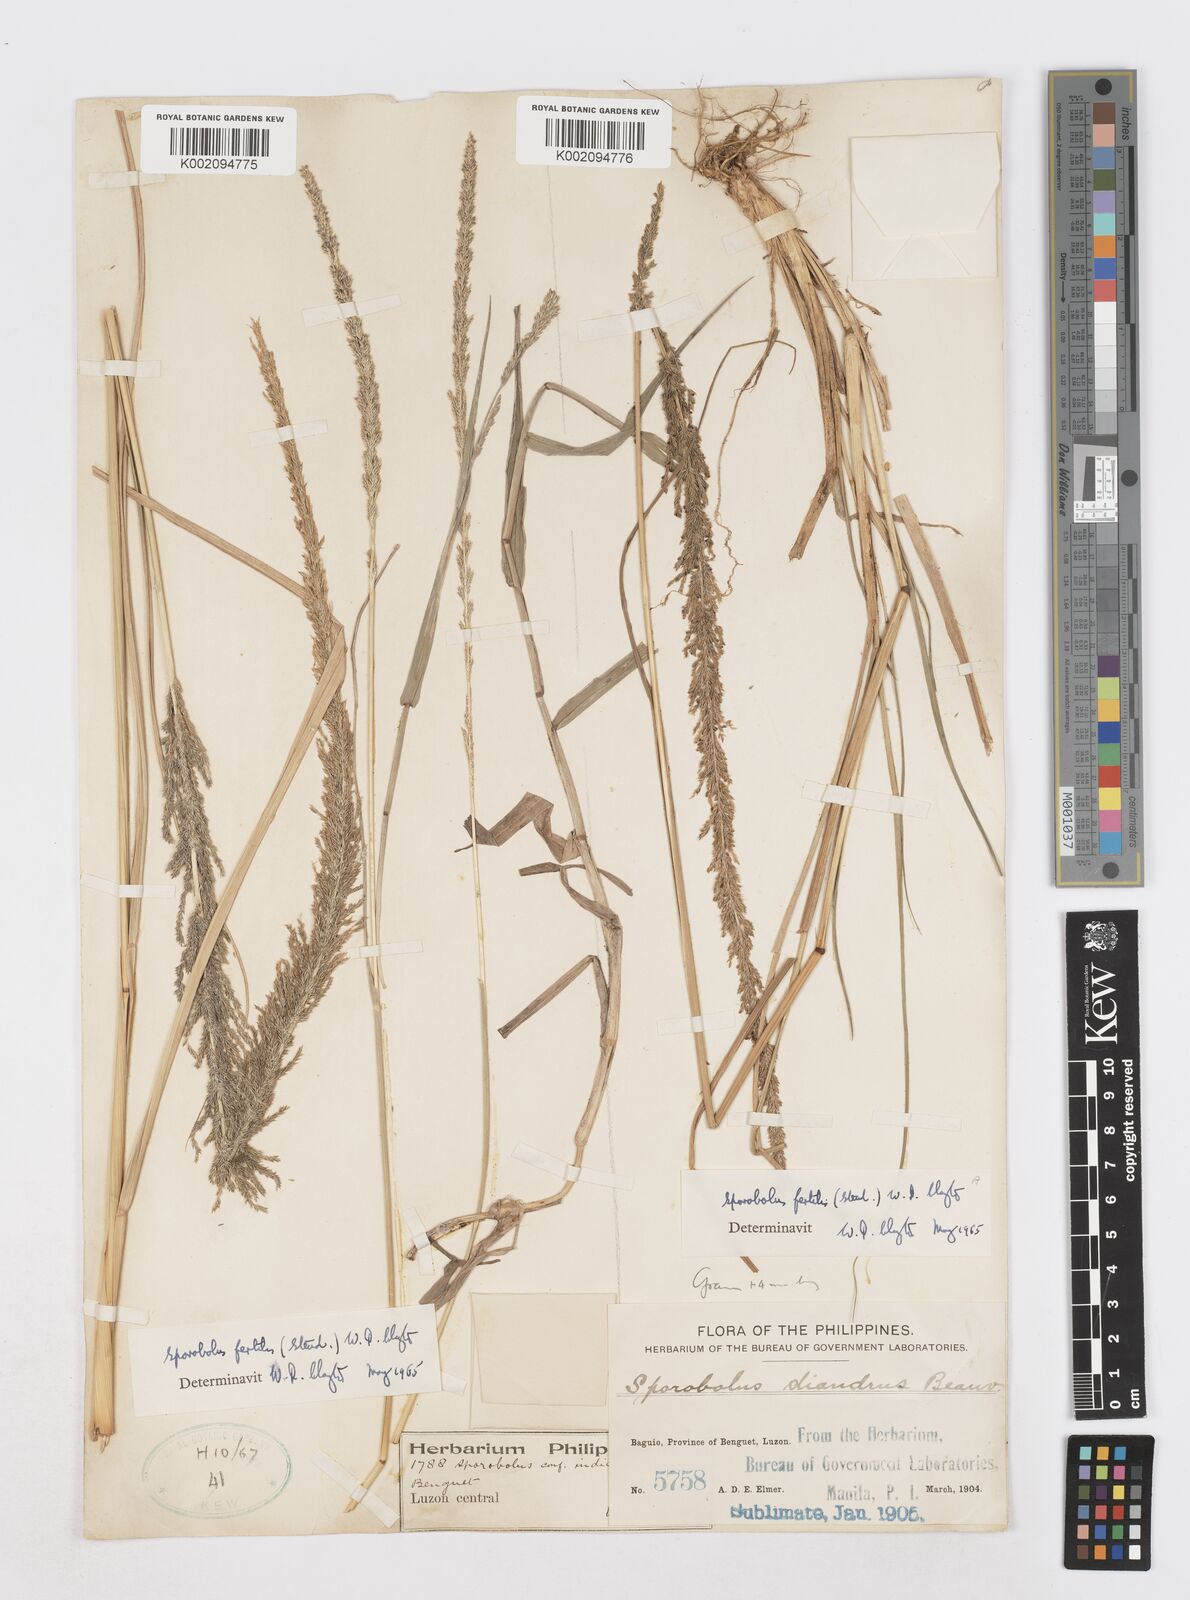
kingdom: Plantae
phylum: Tracheophyta
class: Liliopsida
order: Poales
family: Poaceae
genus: Sporobolus
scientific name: Sporobolus fertilis
